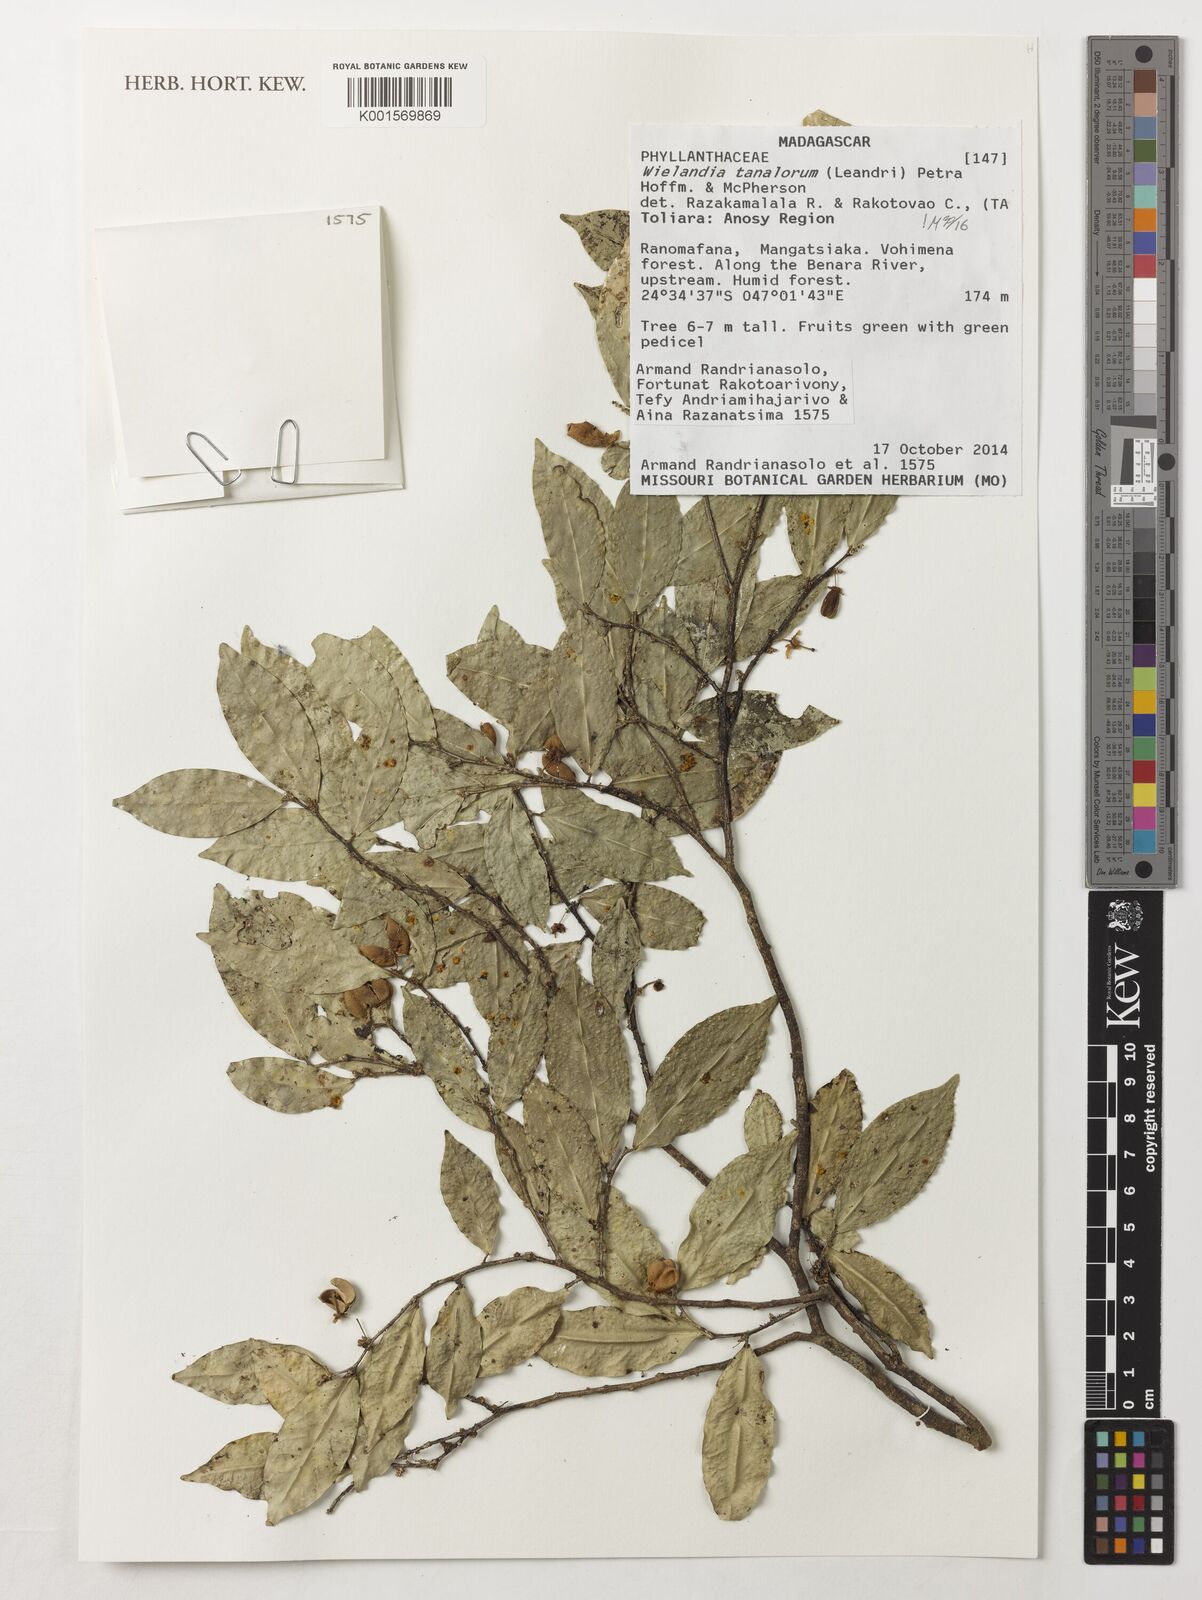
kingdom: Plantae
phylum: Tracheophyta
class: Magnoliopsida
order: Malpighiales
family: Phyllanthaceae
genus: Wielandia
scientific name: Wielandia tanalorum
